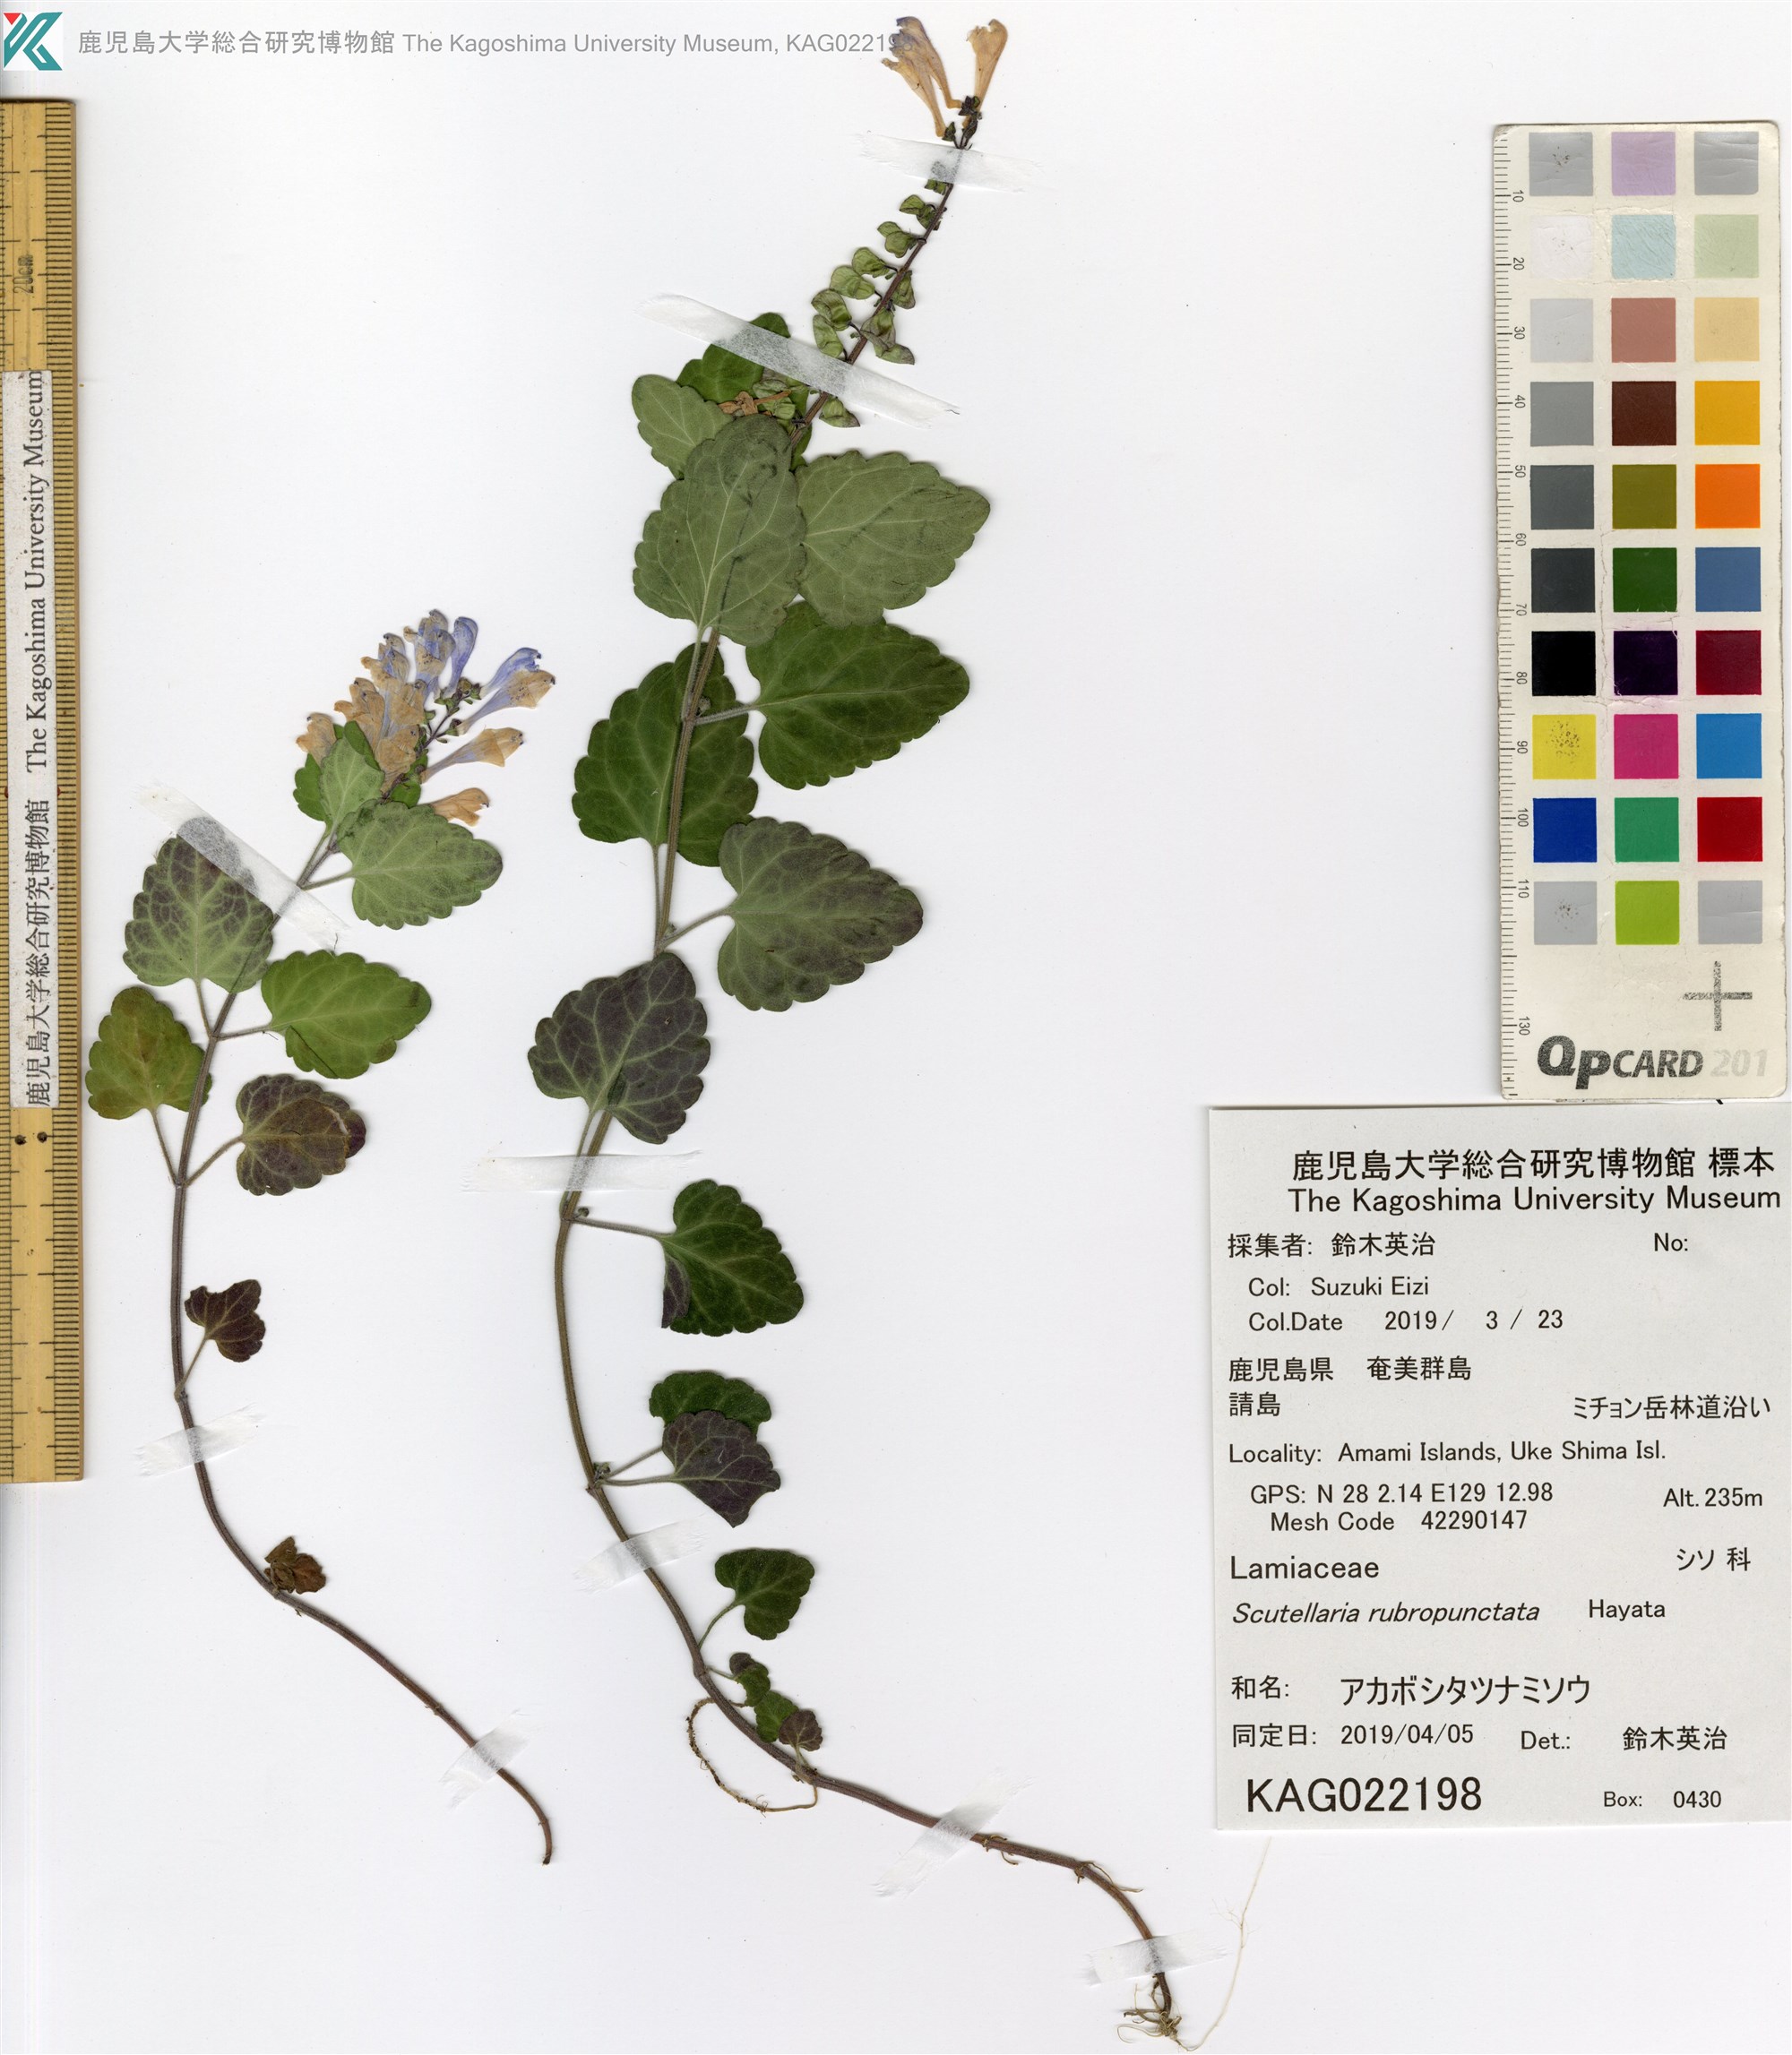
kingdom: Plantae
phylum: Tracheophyta
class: Magnoliopsida
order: Lamiales
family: Lamiaceae
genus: Scutellaria
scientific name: Scutellaria rubropunctata
